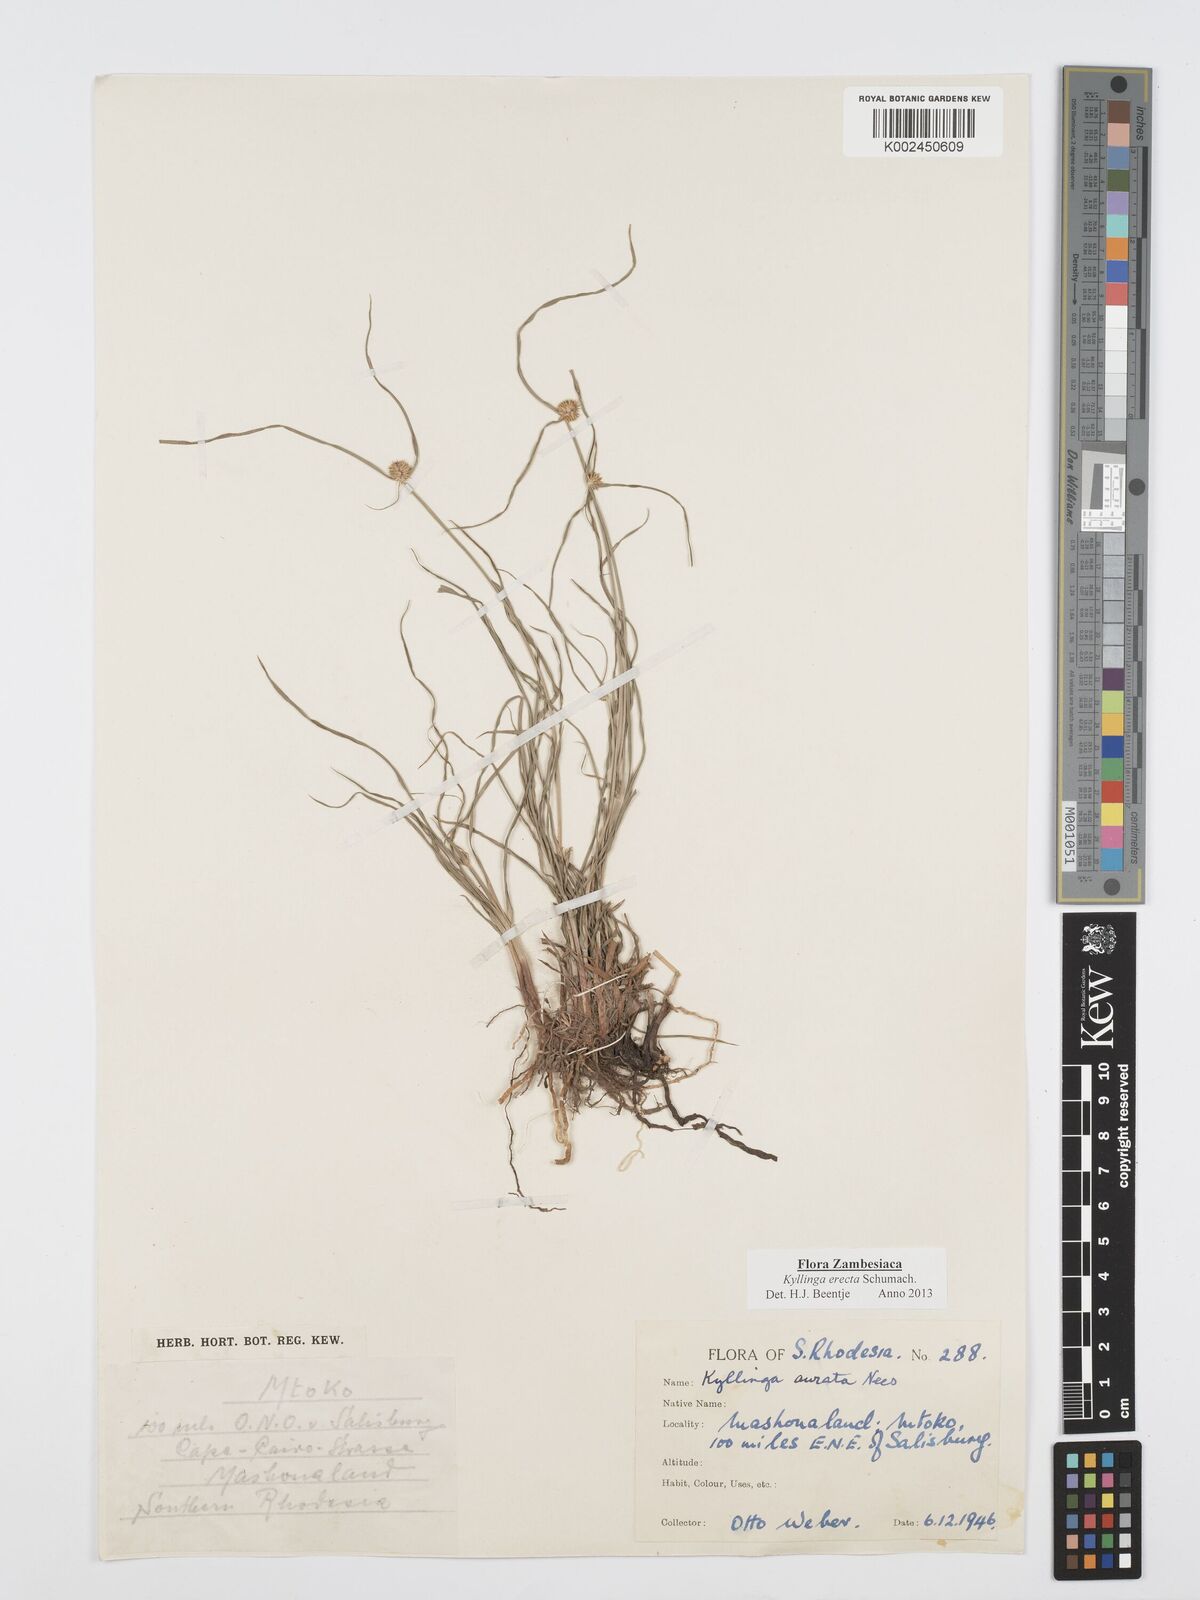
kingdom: Plantae
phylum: Tracheophyta
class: Liliopsida
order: Poales
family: Cyperaceae
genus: Cyperus
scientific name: Cyperus erectus
